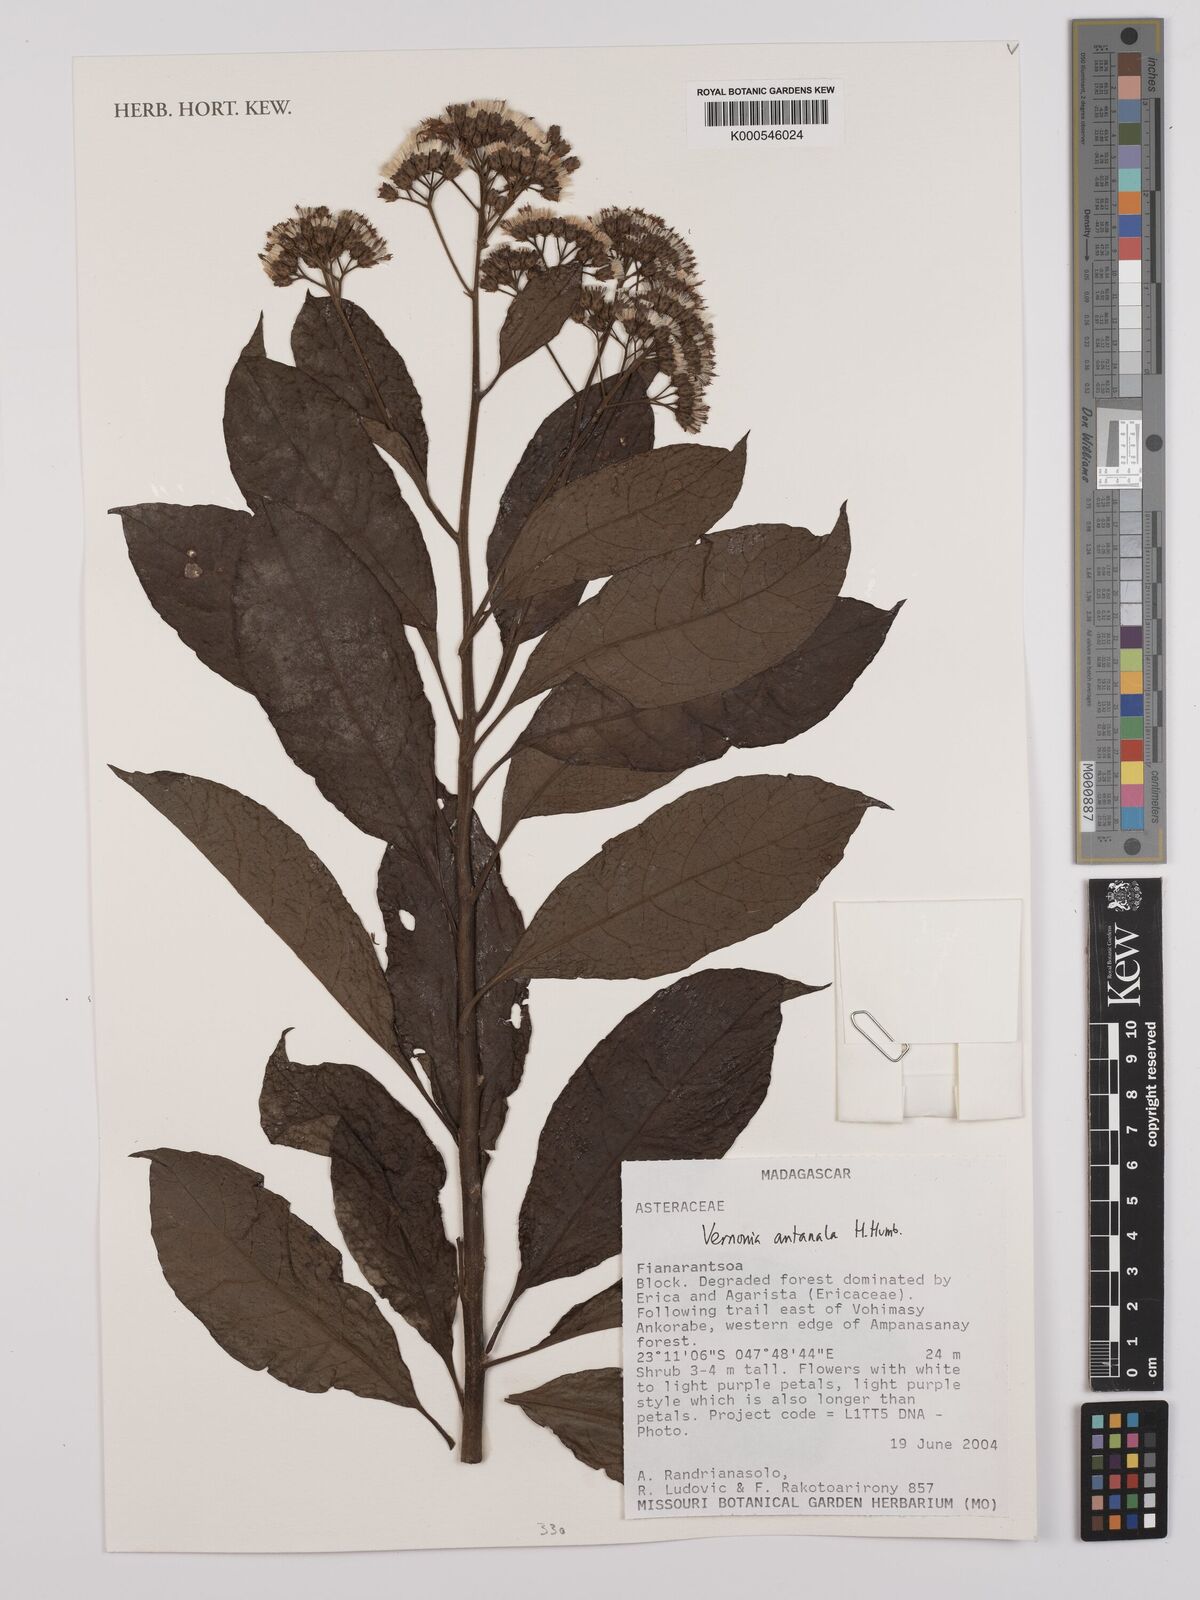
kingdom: Plantae
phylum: Tracheophyta
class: Magnoliopsida
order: Asterales
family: Asteraceae
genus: Gymnanthemum
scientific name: Gymnanthemum antanalus
